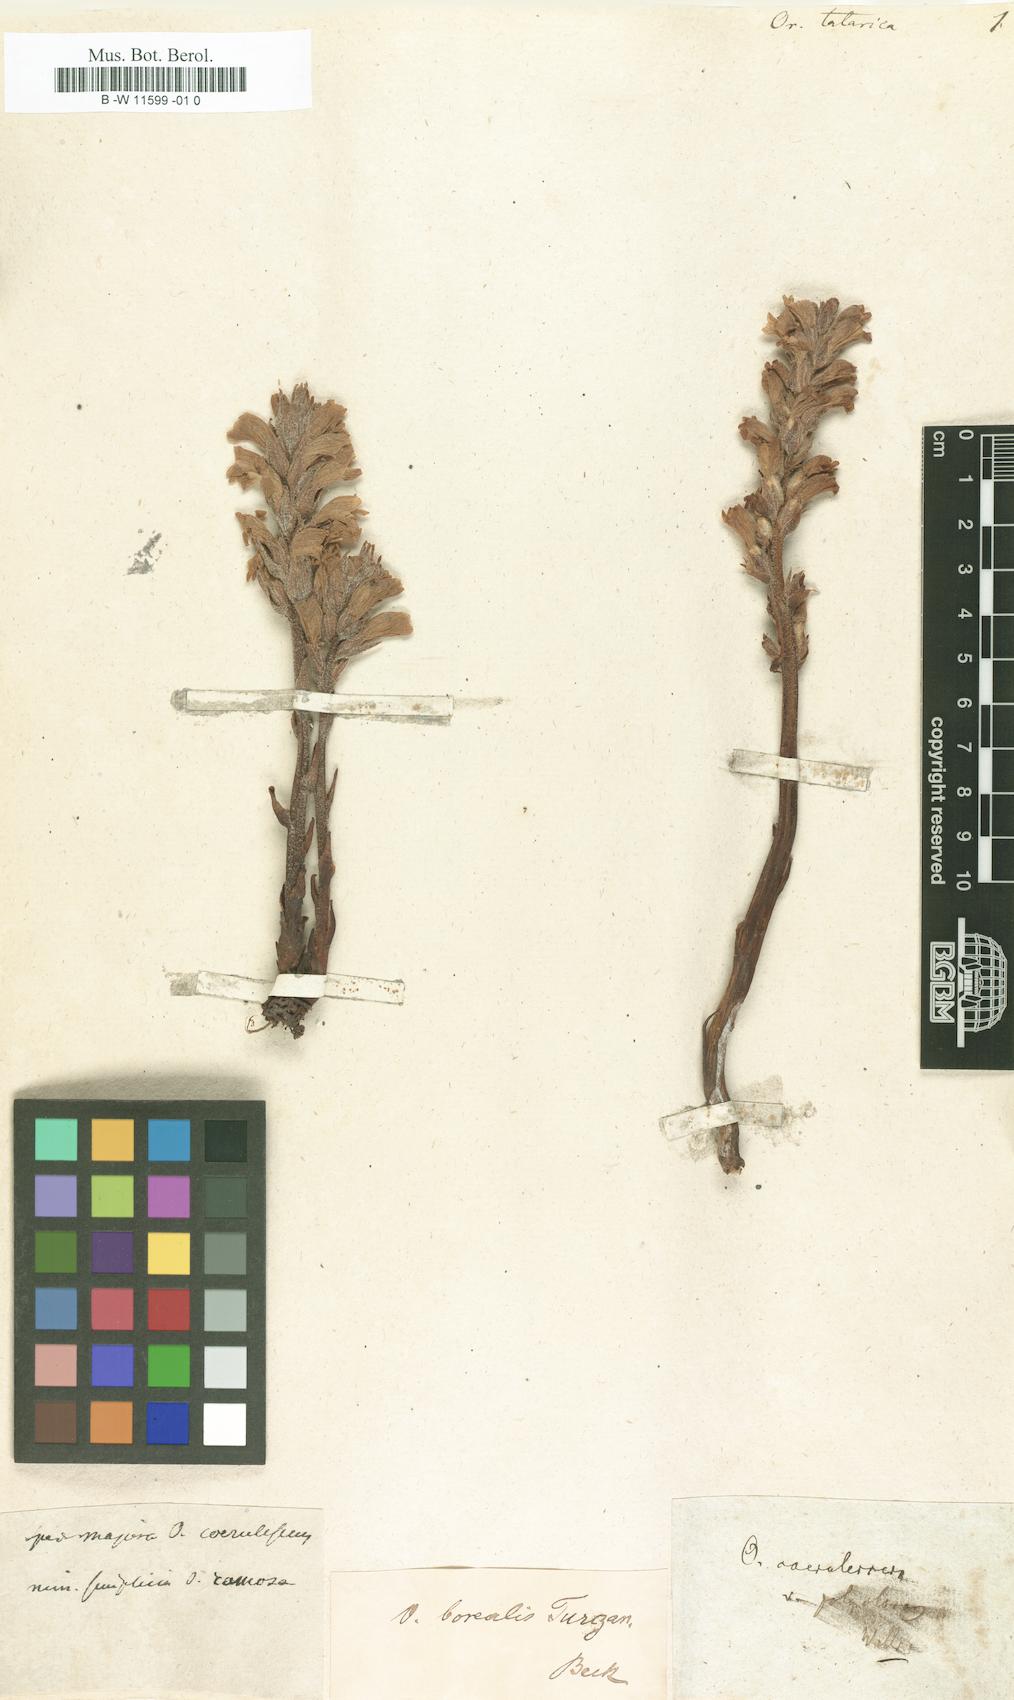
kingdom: Plantae
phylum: Tracheophyta
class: Magnoliopsida
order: Lamiales
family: Orobanchaceae
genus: Orobanche
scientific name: Orobanche
